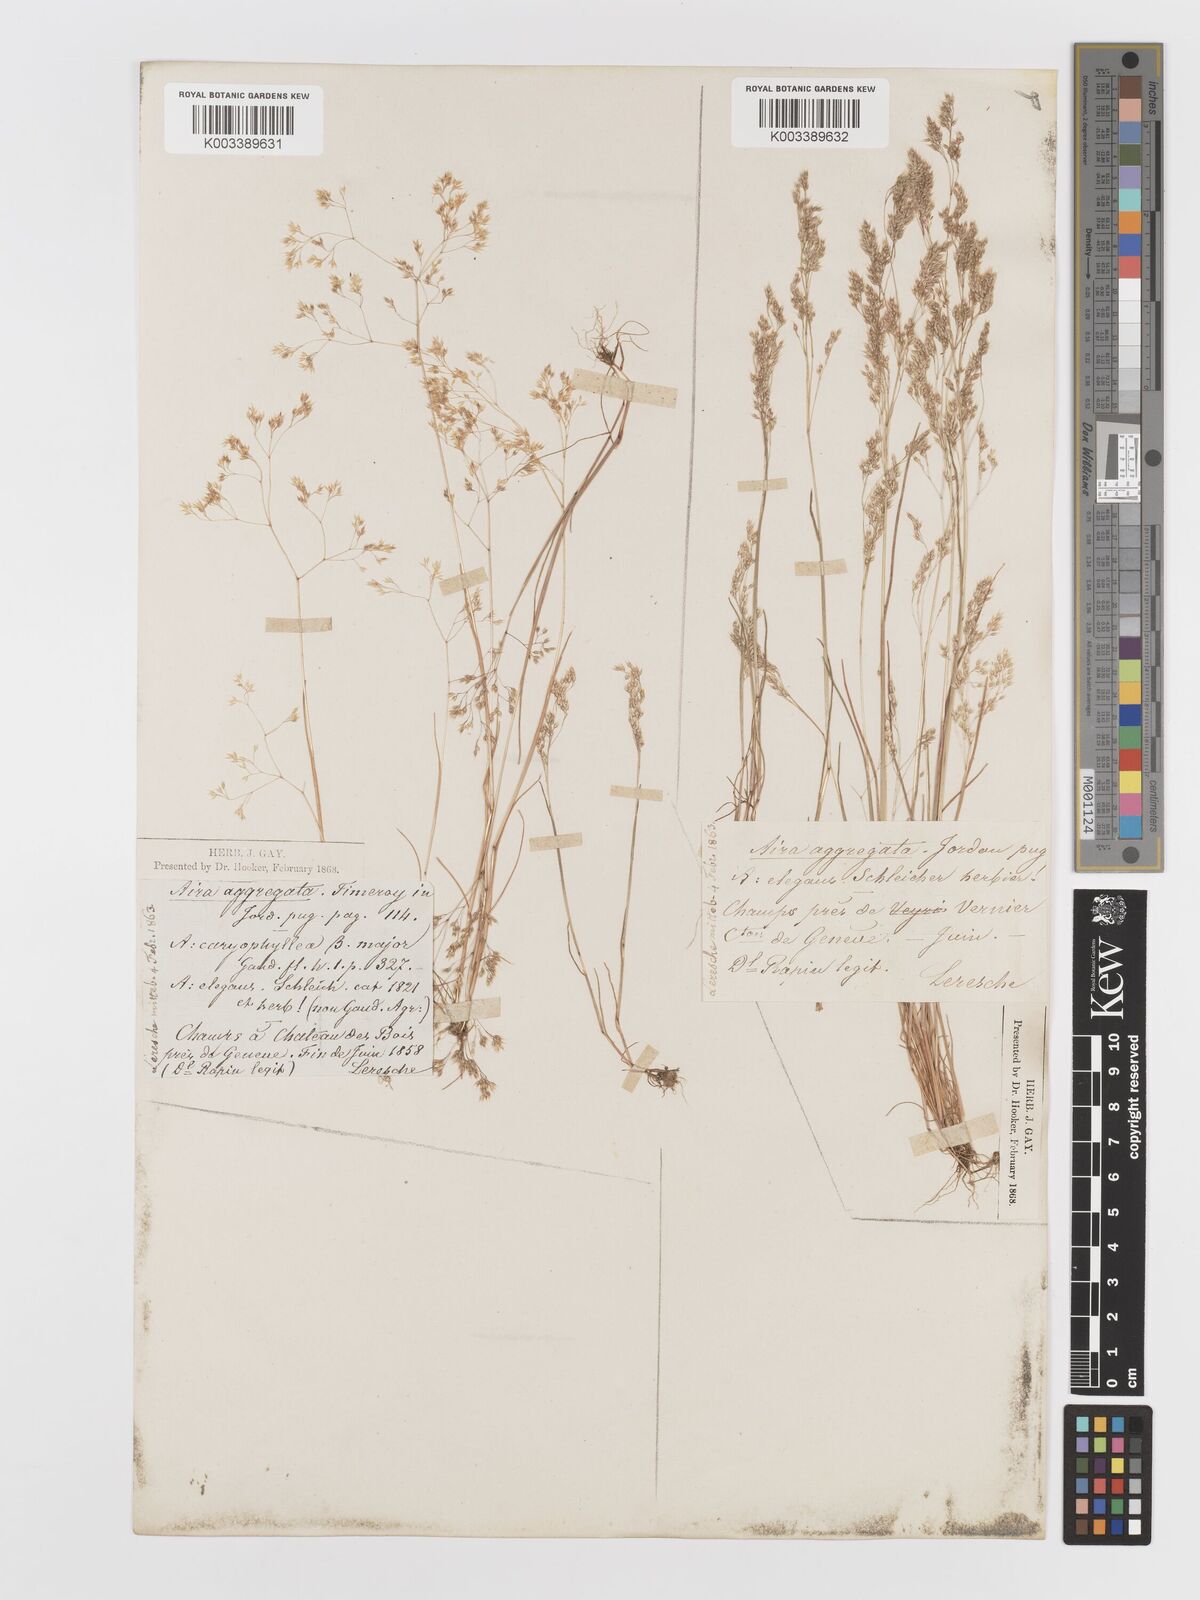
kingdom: Plantae
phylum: Tracheophyta
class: Liliopsida
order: Poales
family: Poaceae
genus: Aira
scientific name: Aira caryophyllea
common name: Silver hairgrass
